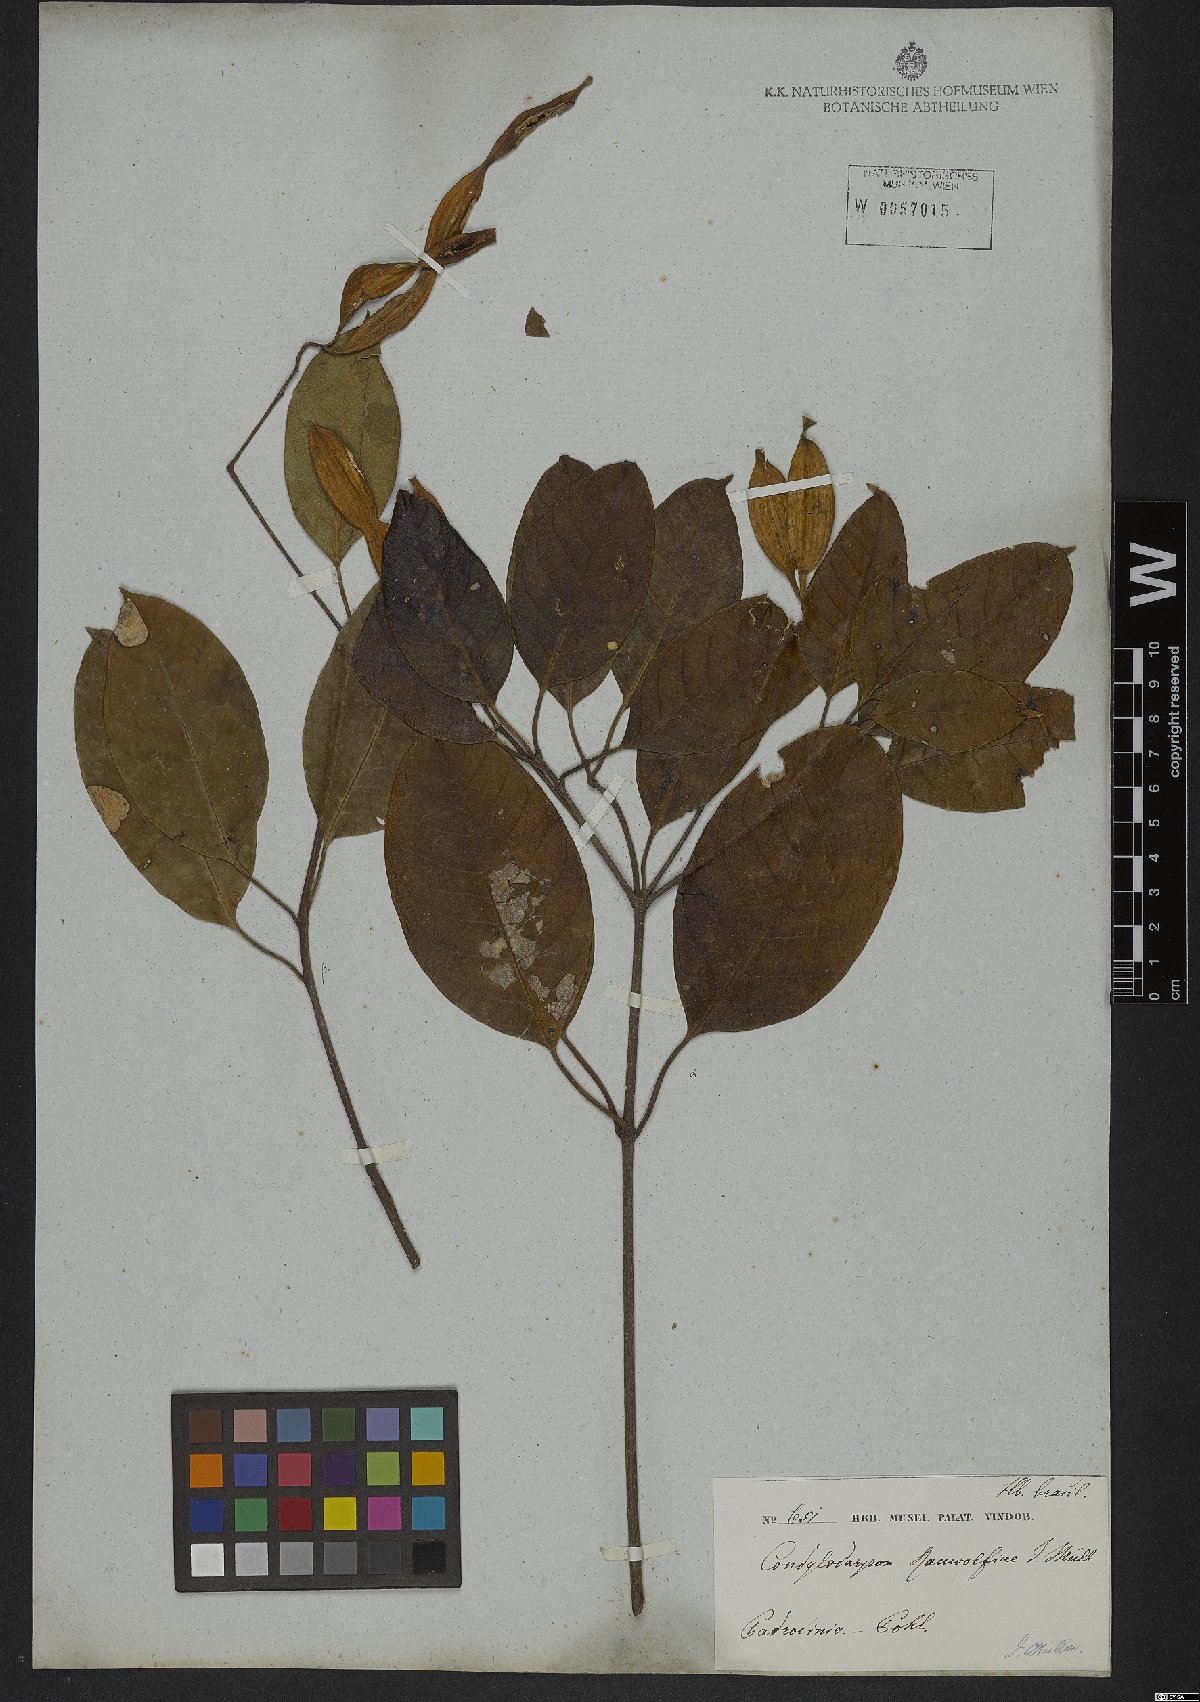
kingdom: Plantae
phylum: Tracheophyta
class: Magnoliopsida
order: Gentianales
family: Apocynaceae
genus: Condylocarpon
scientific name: Condylocarpon isthmicum
